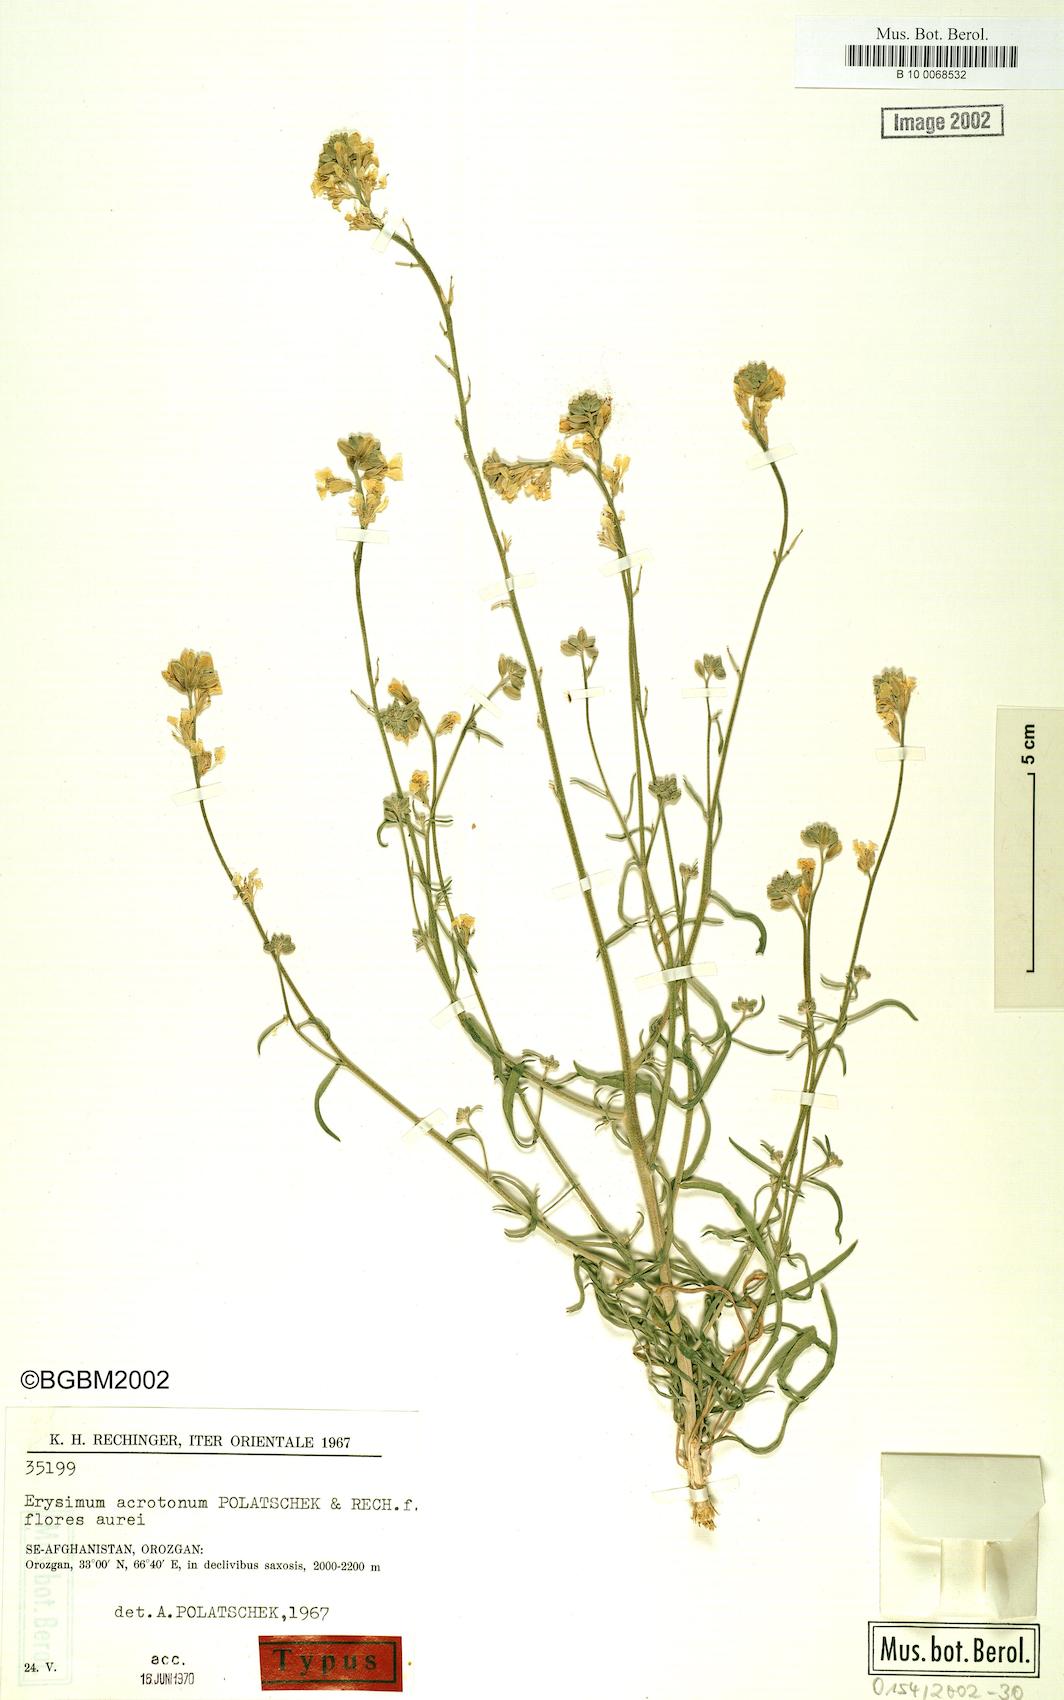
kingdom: Plantae
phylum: Tracheophyta
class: Magnoliopsida
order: Brassicales
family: Brassicaceae
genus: Erysimum
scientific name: Erysimum acrotonum
